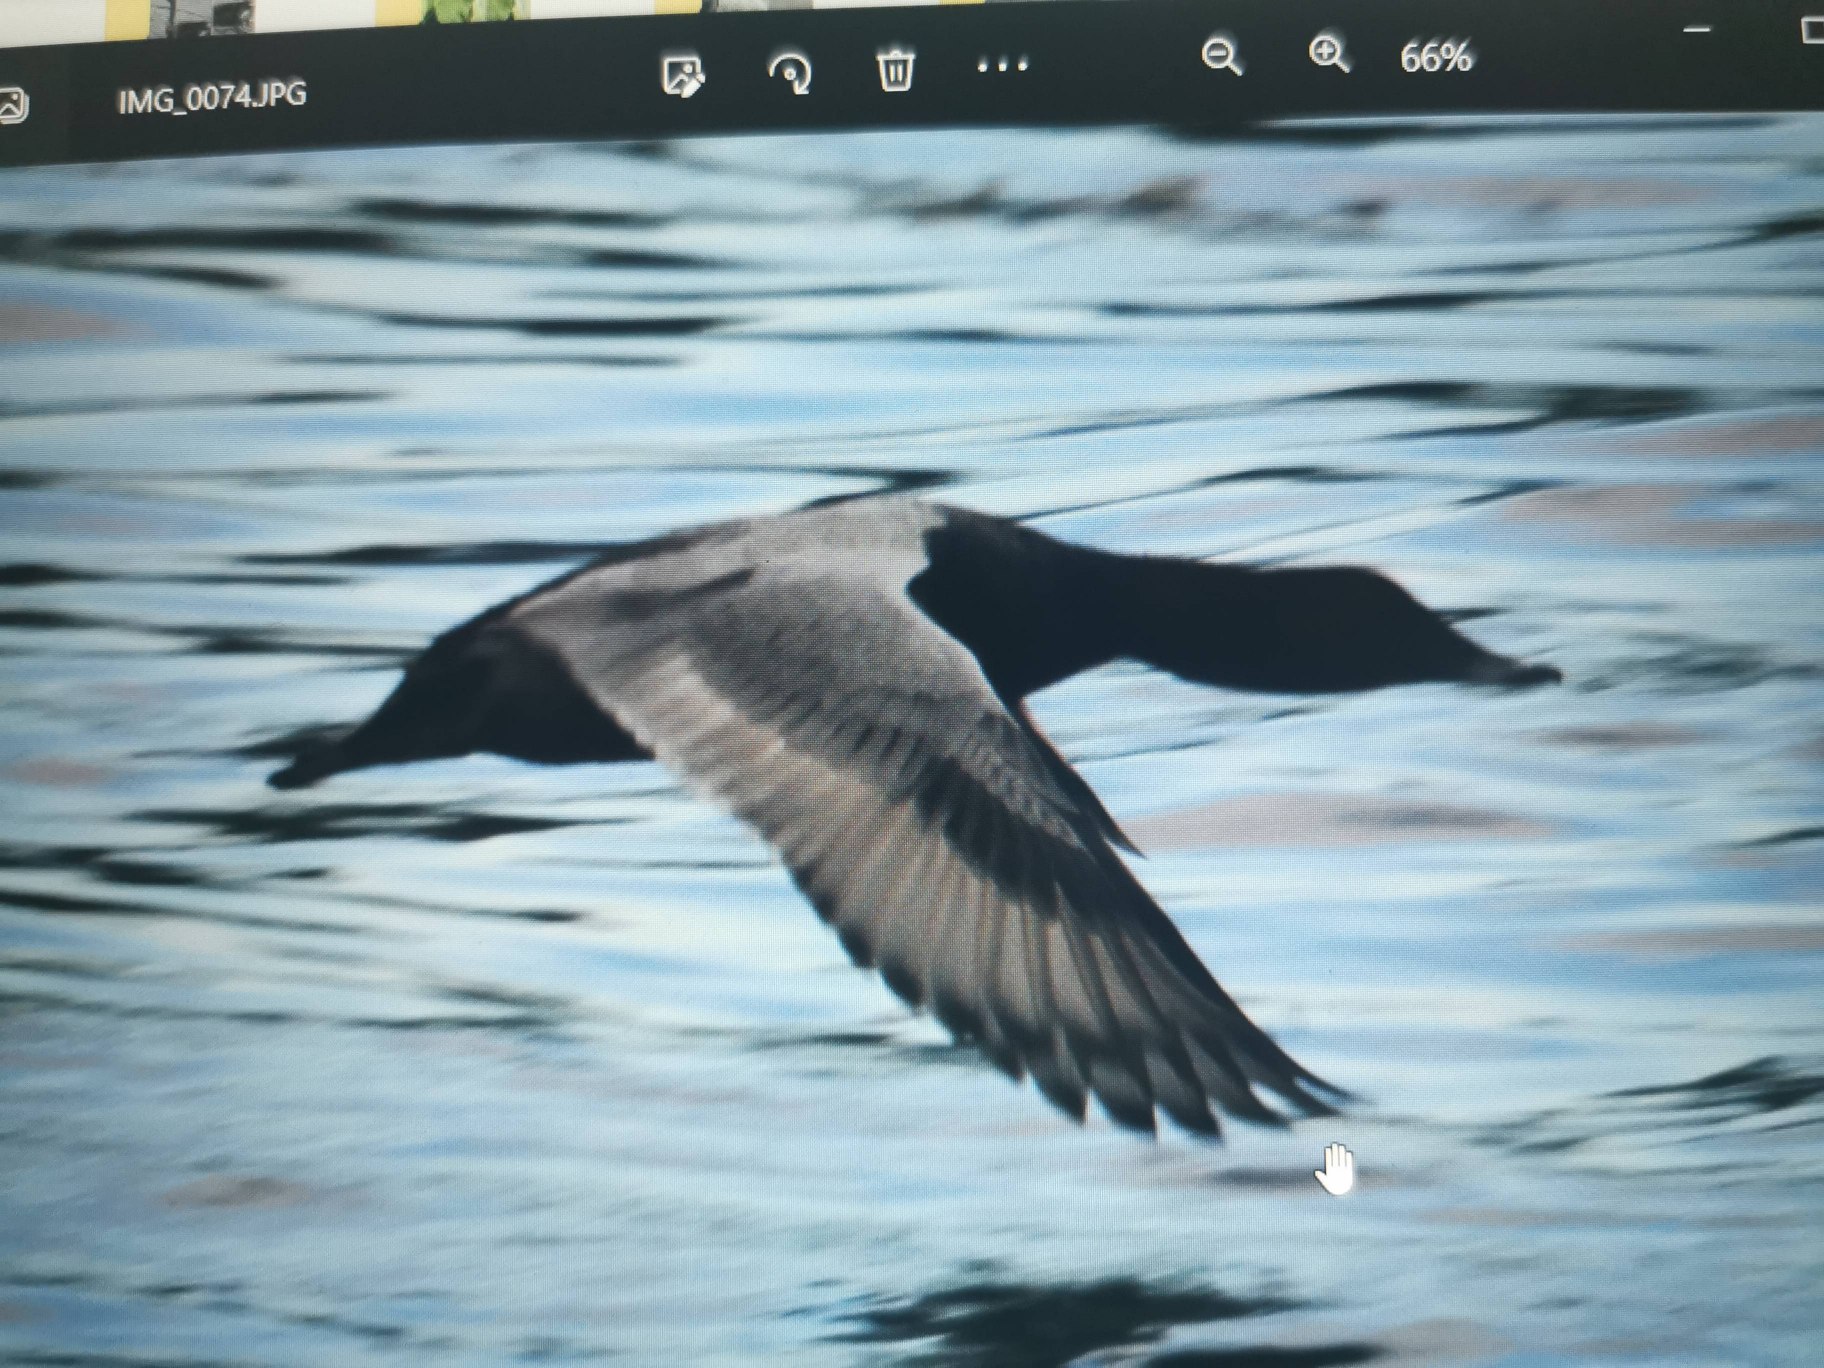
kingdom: Animalia
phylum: Chordata
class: Aves
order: Anseriformes
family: Anatidae
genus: Aythya
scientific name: Aythya ferina
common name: Taffeland
